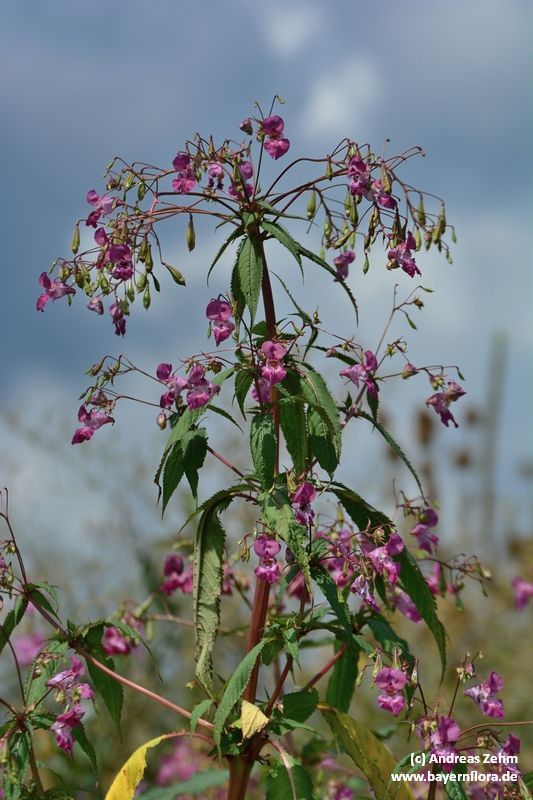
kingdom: Plantae
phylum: Tracheophyta
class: Magnoliopsida
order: Ericales
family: Balsaminaceae
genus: Impatiens
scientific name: Impatiens glandulifera
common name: Himalayan balsam
